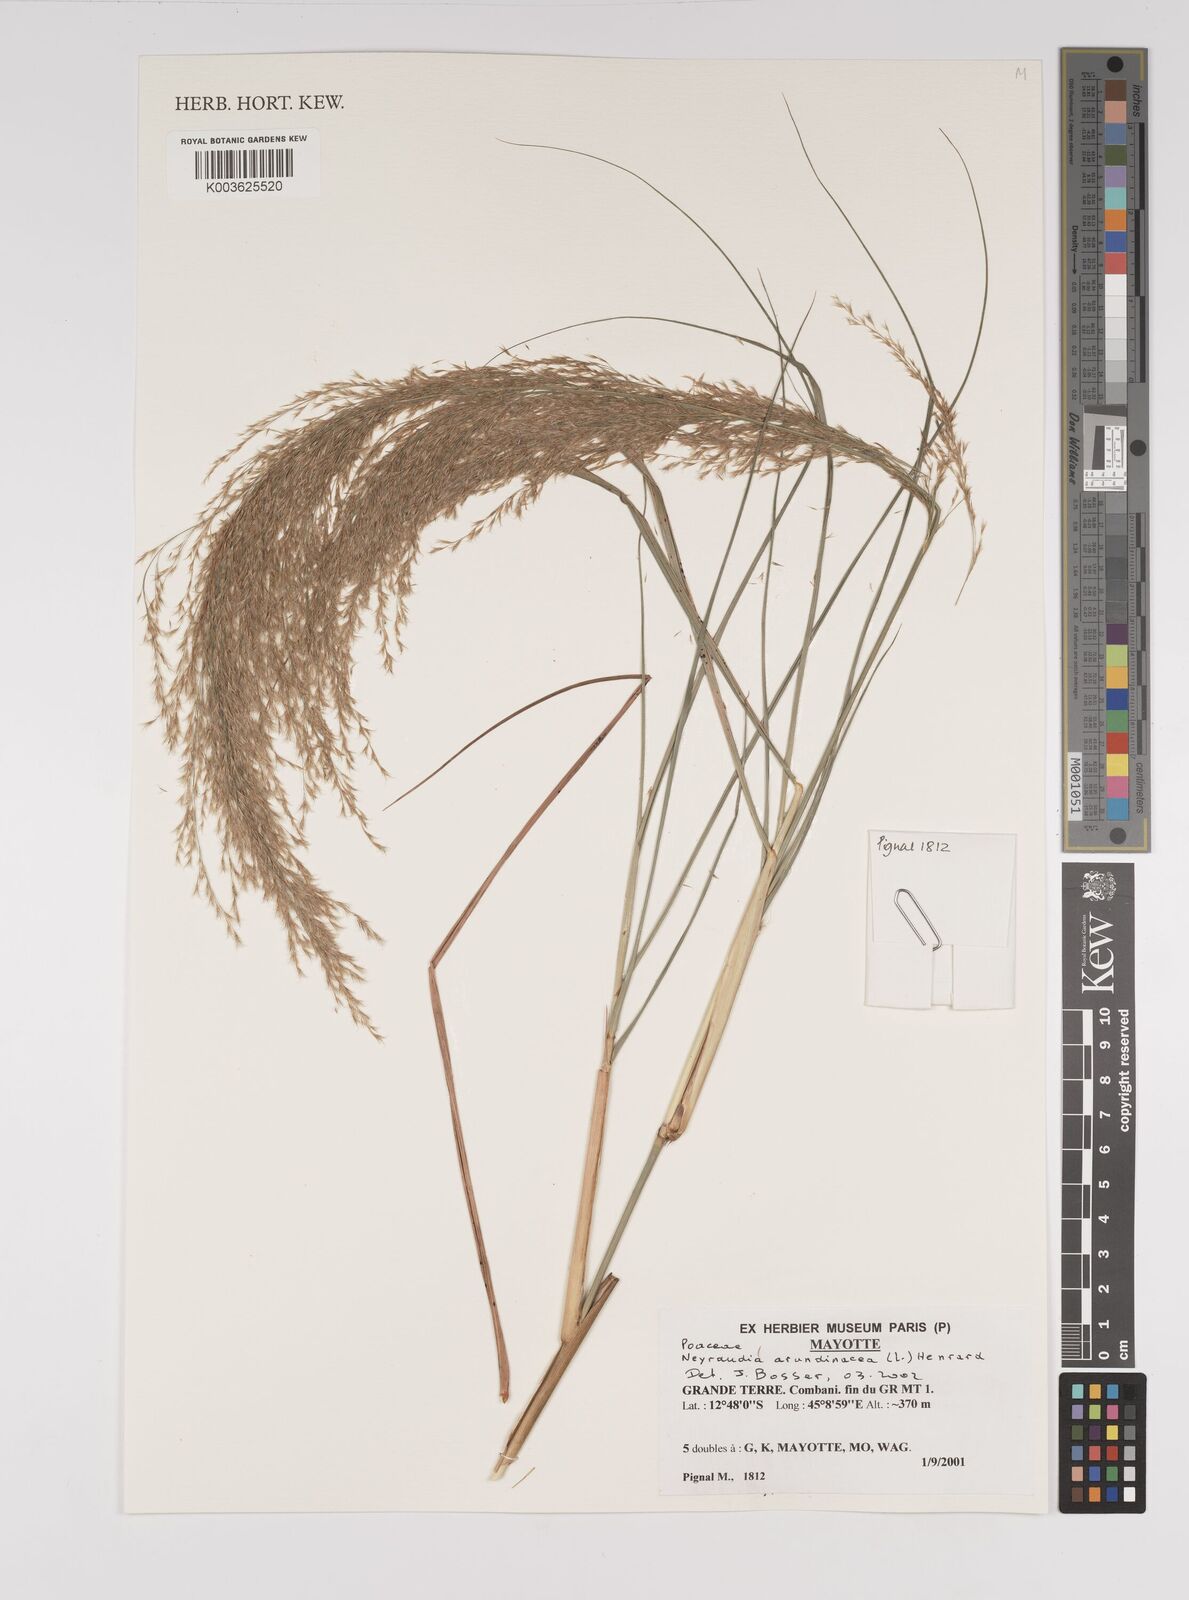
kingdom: Plantae
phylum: Tracheophyta
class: Liliopsida
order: Poales
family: Poaceae
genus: Neyraudia
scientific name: Neyraudia arundinacea
